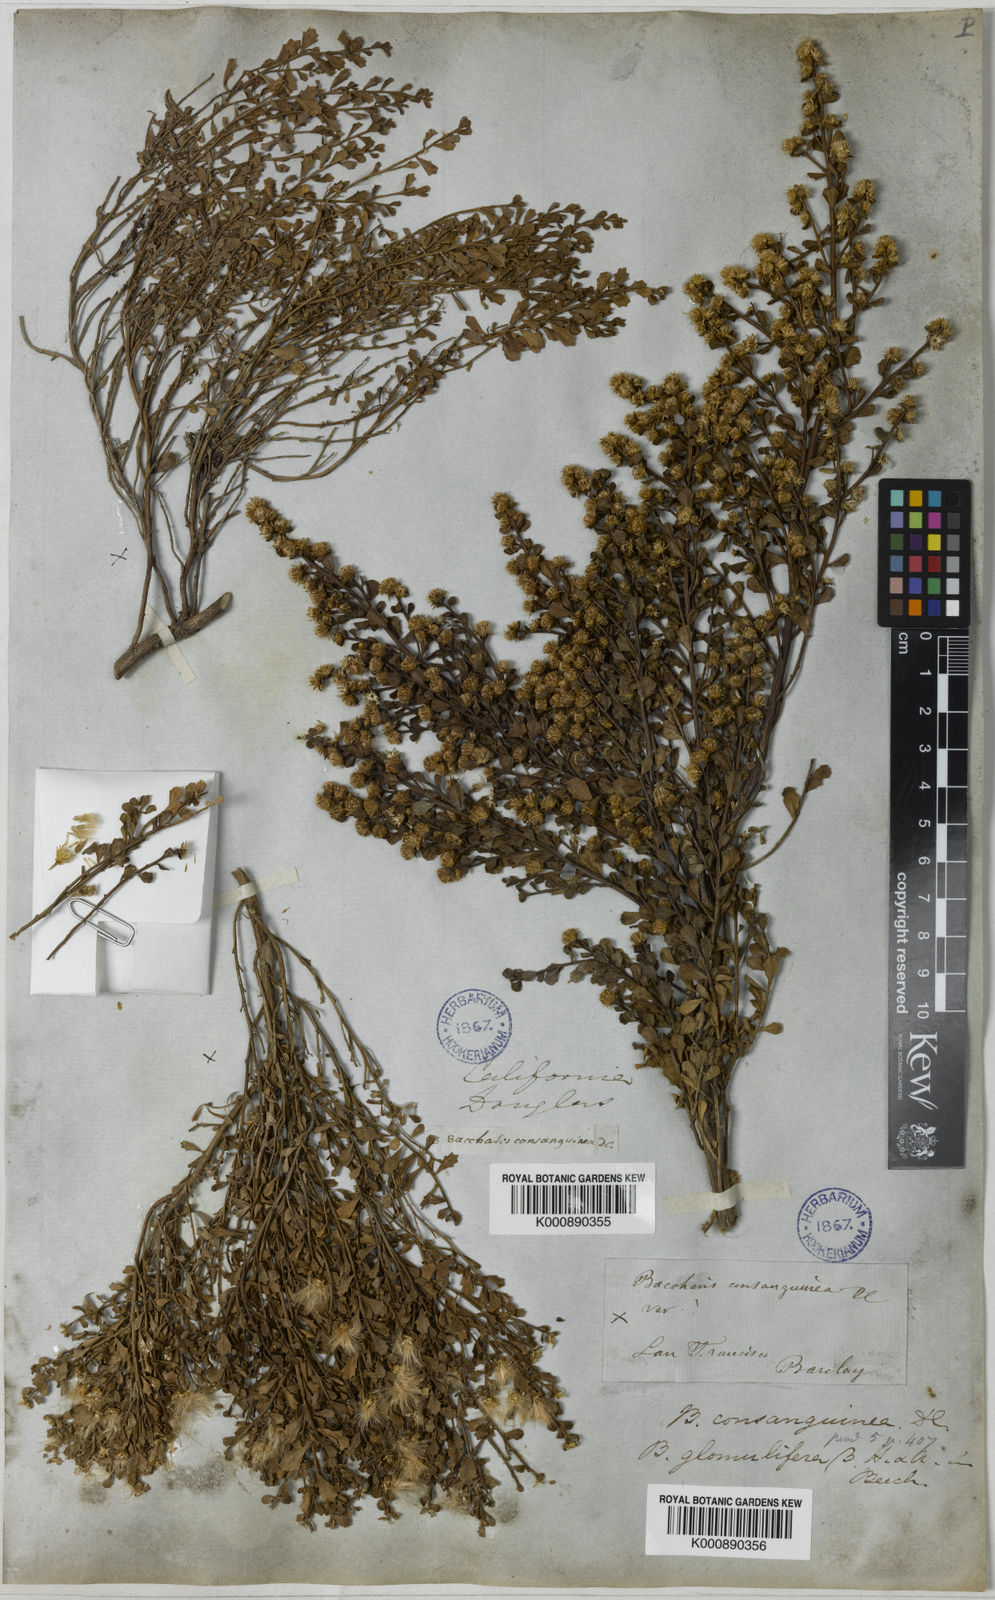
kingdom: Plantae
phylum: Tracheophyta
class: Magnoliopsida
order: Asterales
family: Asteraceae
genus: Baccharis
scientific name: Baccharis pilularis
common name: Coyotebrush
